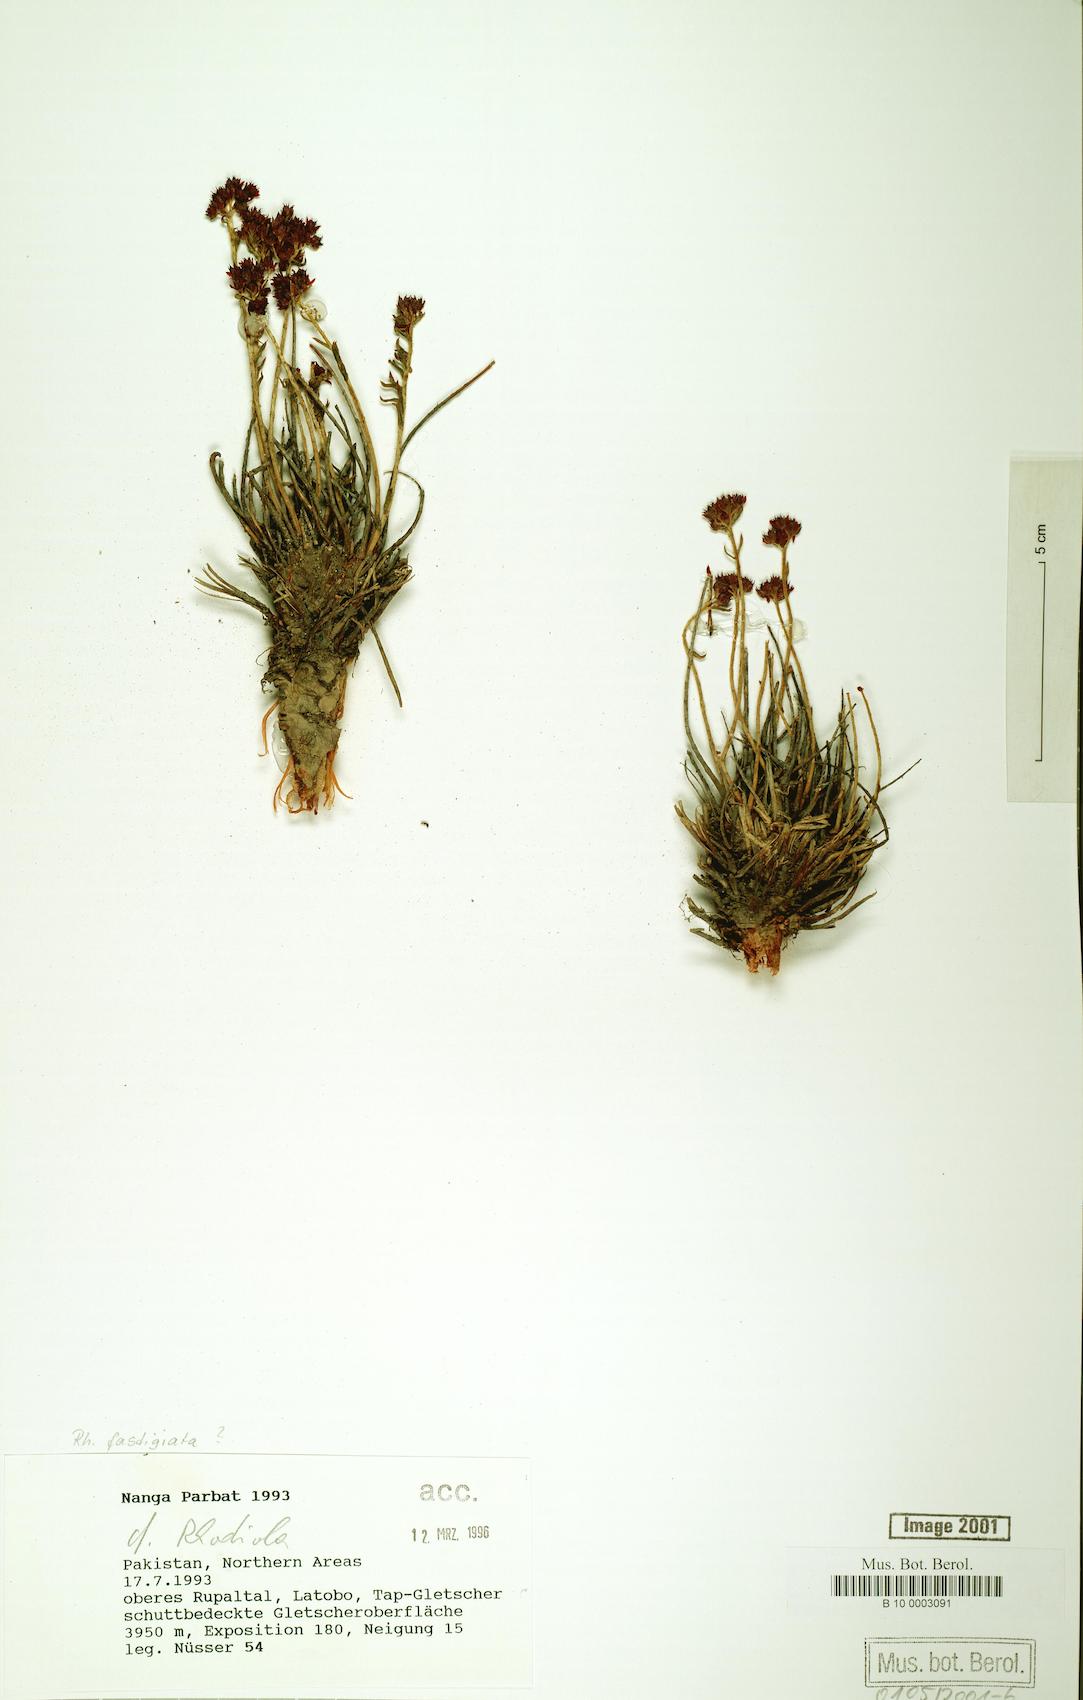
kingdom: Plantae
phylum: Tracheophyta
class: Magnoliopsida
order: Saxifragales
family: Crassulaceae
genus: Rhodiola
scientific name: Rhodiola fastigiata
